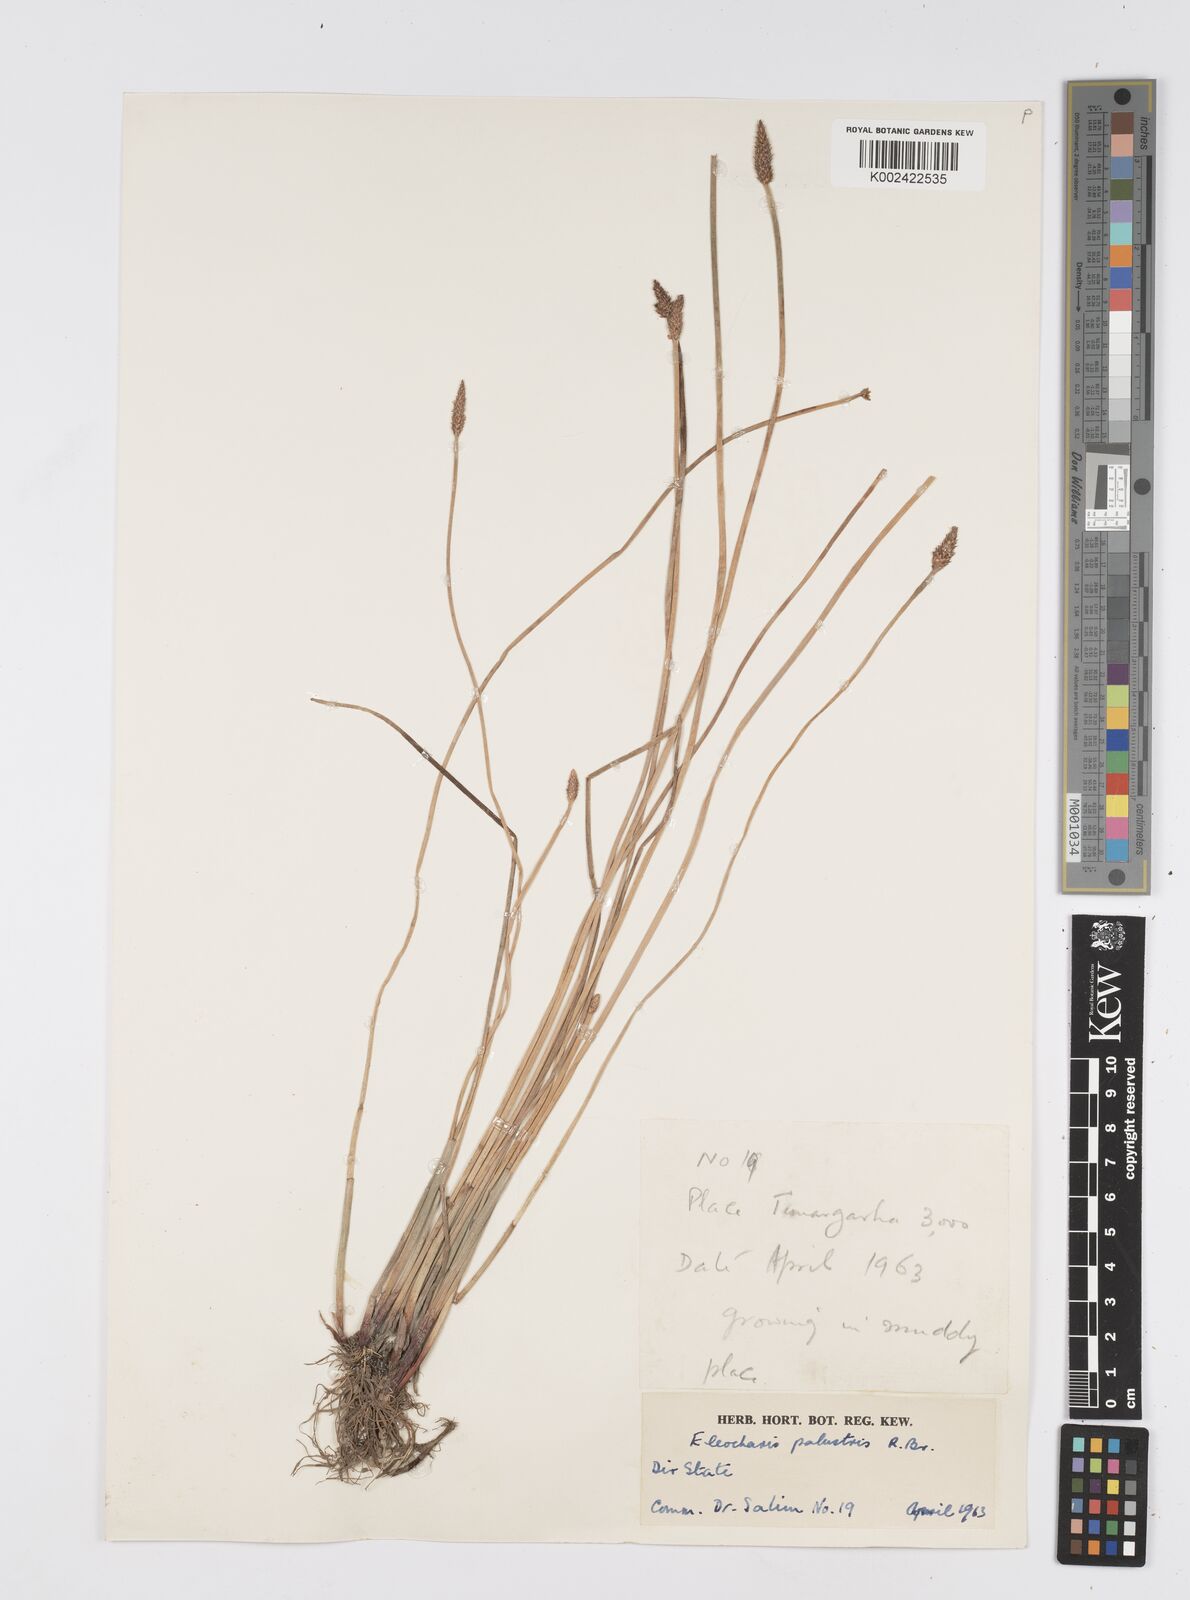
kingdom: Plantae
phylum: Tracheophyta
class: Liliopsida
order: Poales
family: Cyperaceae
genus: Eleocharis
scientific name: Eleocharis palustris
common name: Common spike-rush
